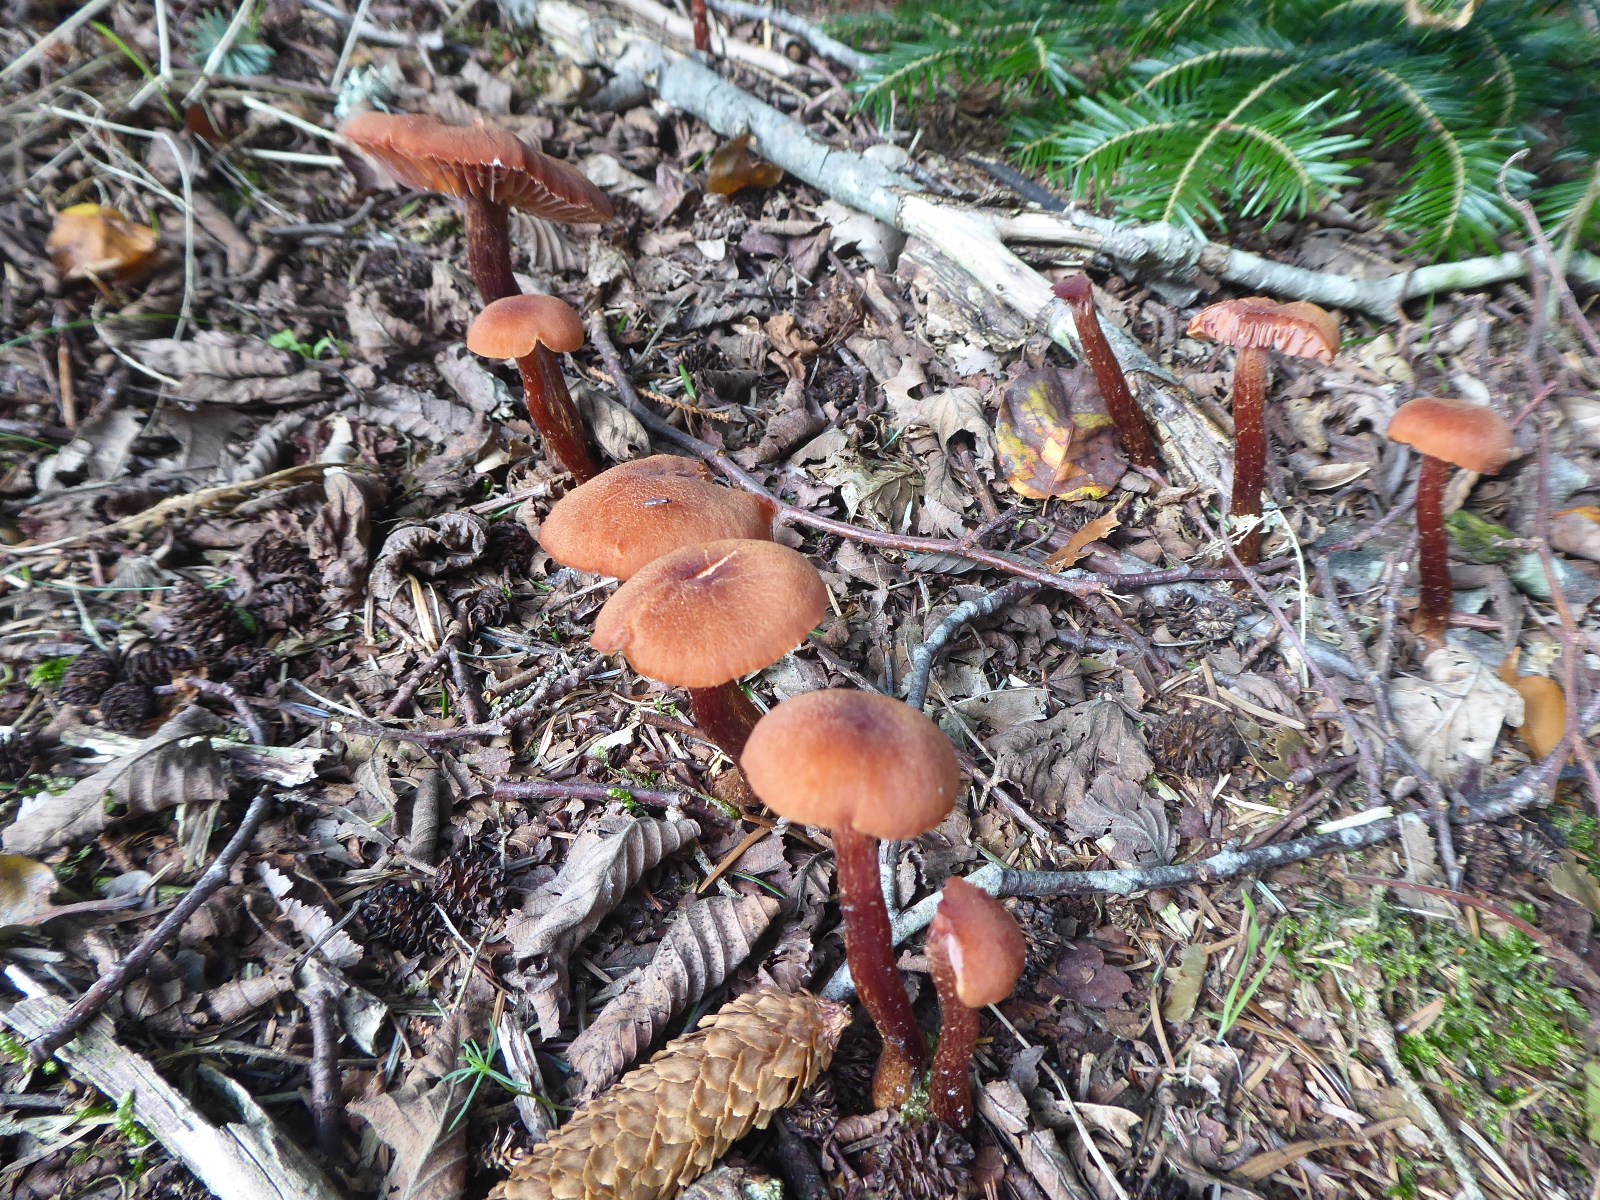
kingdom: Fungi
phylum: Basidiomycota
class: Agaricomycetes
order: Agaricales
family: Hydnangiaceae
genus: Laccaria
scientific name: Laccaria proxima
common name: stor ametysthat
